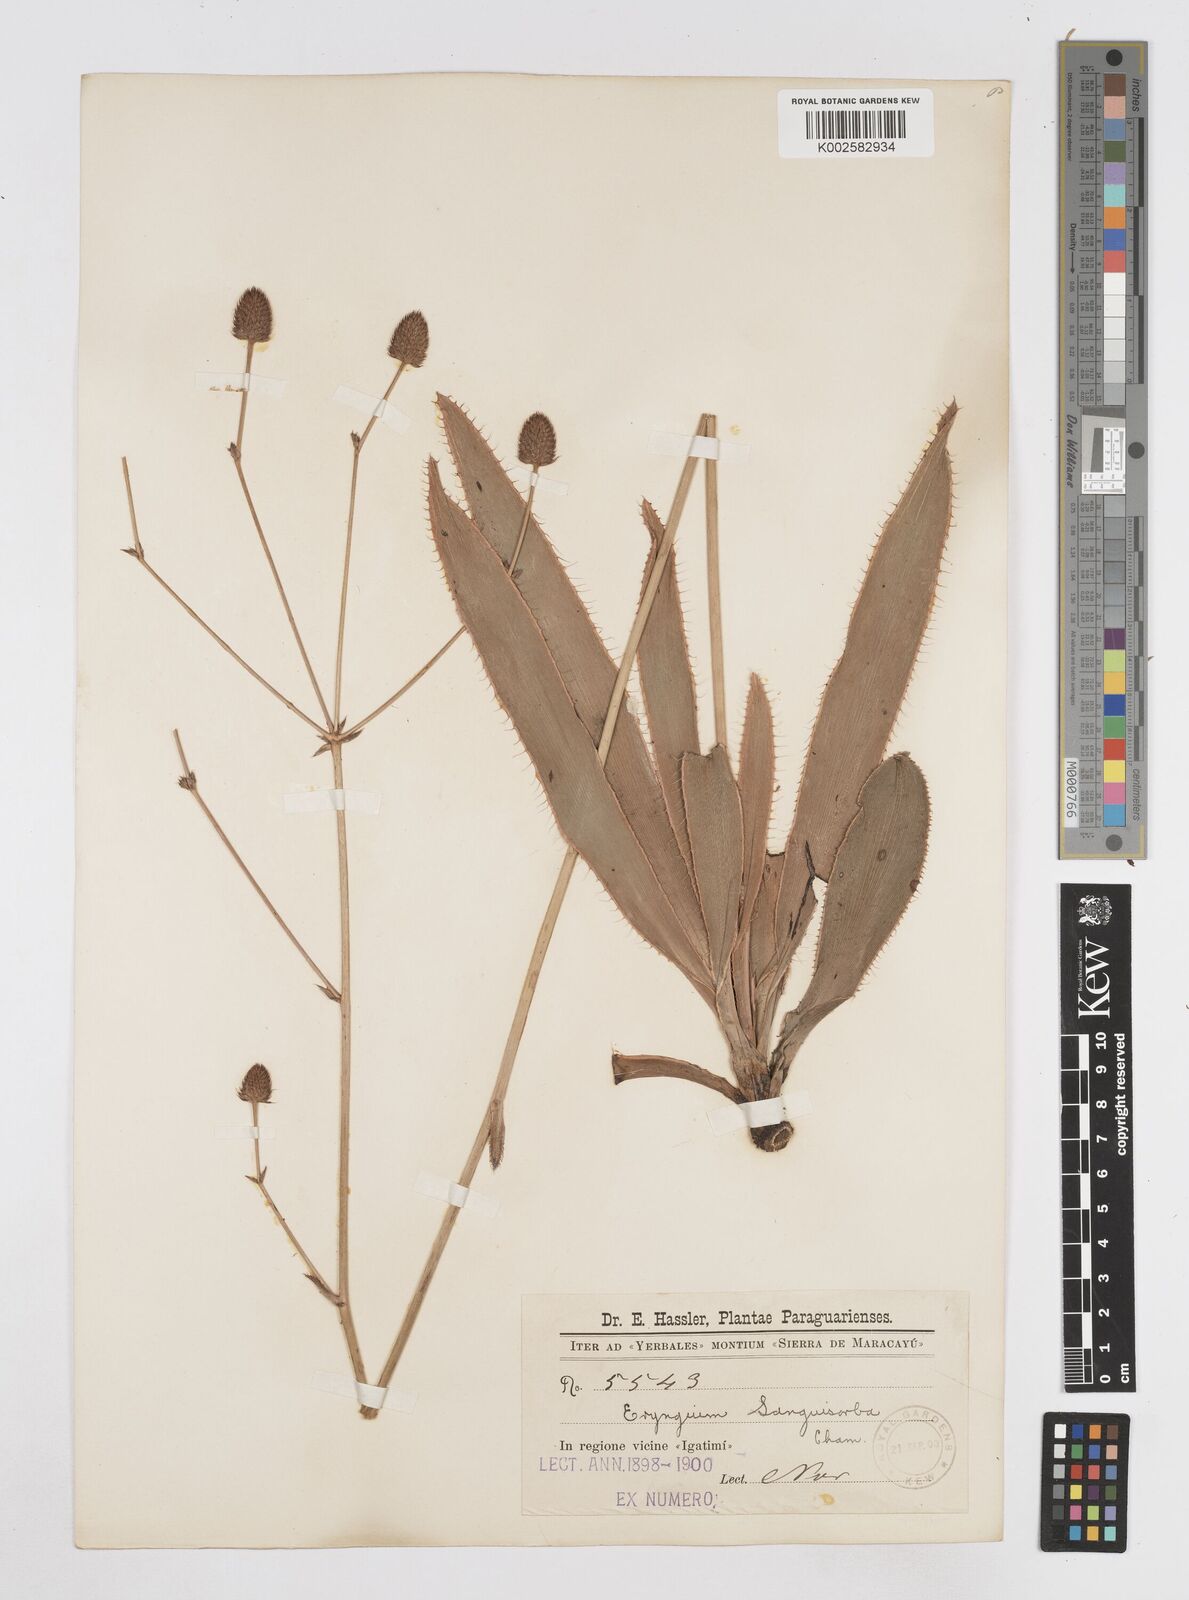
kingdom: Plantae
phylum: Tracheophyta
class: Magnoliopsida
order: Apiales
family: Apiaceae
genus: Eryngium
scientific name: Eryngium sanguisorba
